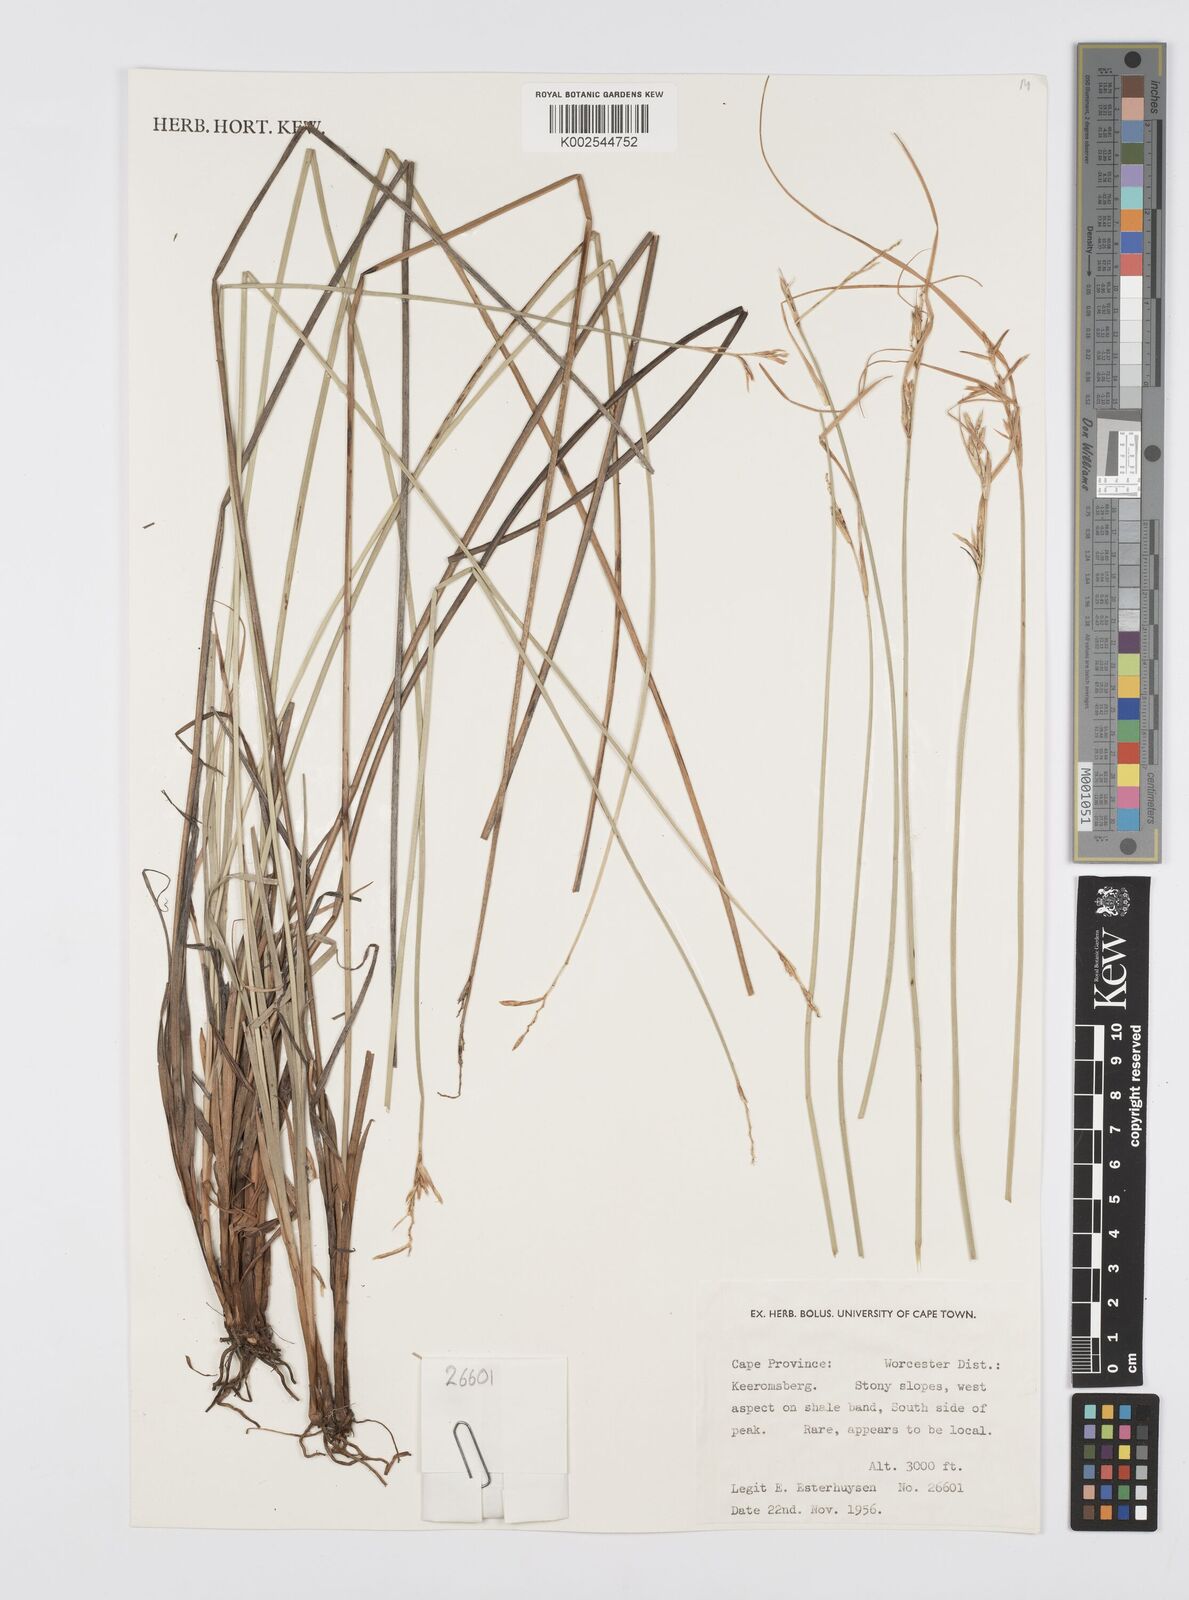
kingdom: Plantae
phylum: Tracheophyta
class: Liliopsida
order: Poales
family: Cyperaceae
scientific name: Cyperaceae
